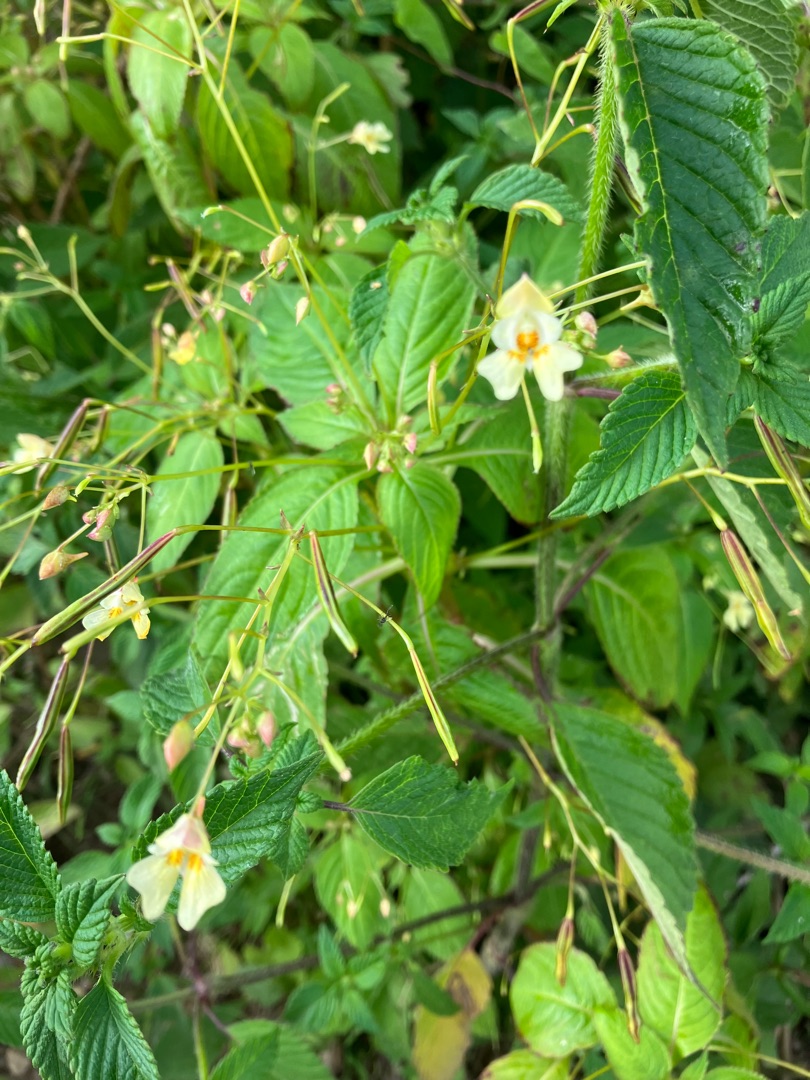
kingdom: Plantae
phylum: Tracheophyta
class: Magnoliopsida
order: Ericales
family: Balsaminaceae
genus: Impatiens
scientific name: Impatiens parviflora
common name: Småblomstret balsamin
